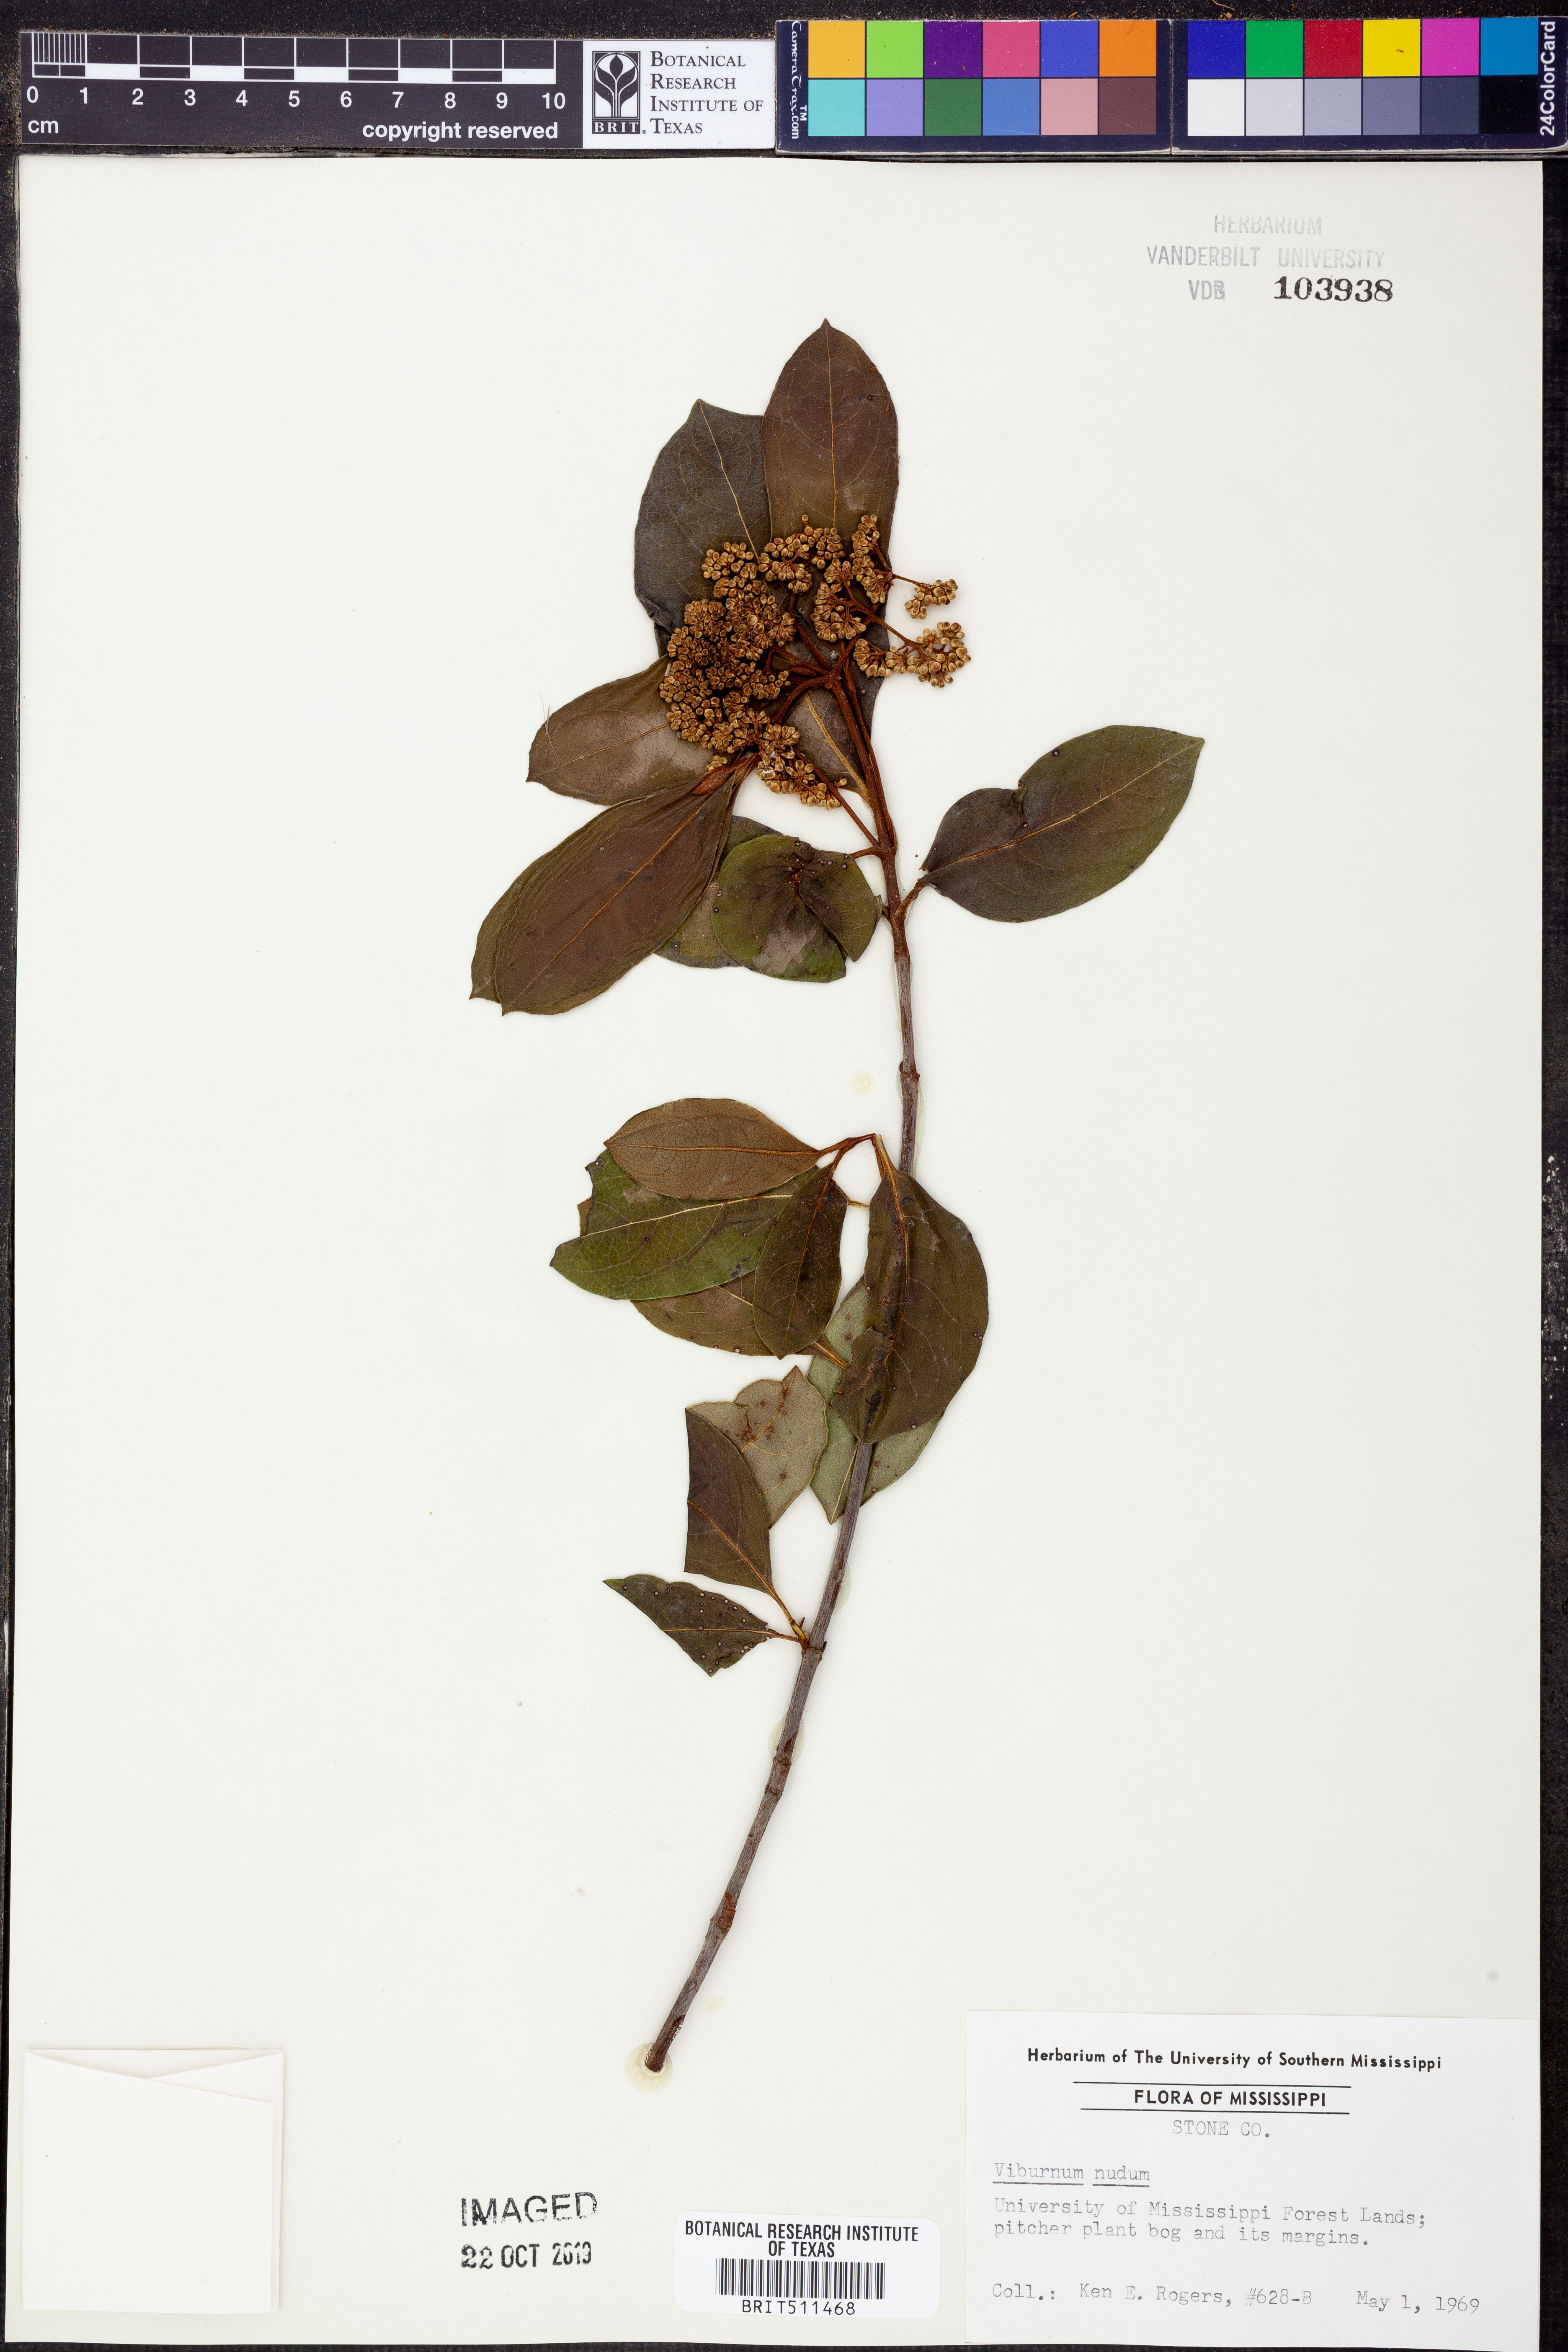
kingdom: Plantae
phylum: Tracheophyta
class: Magnoliopsida
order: Dipsacales
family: Viburnaceae
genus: Viburnum
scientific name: Viburnum nudum
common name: Possum haw
